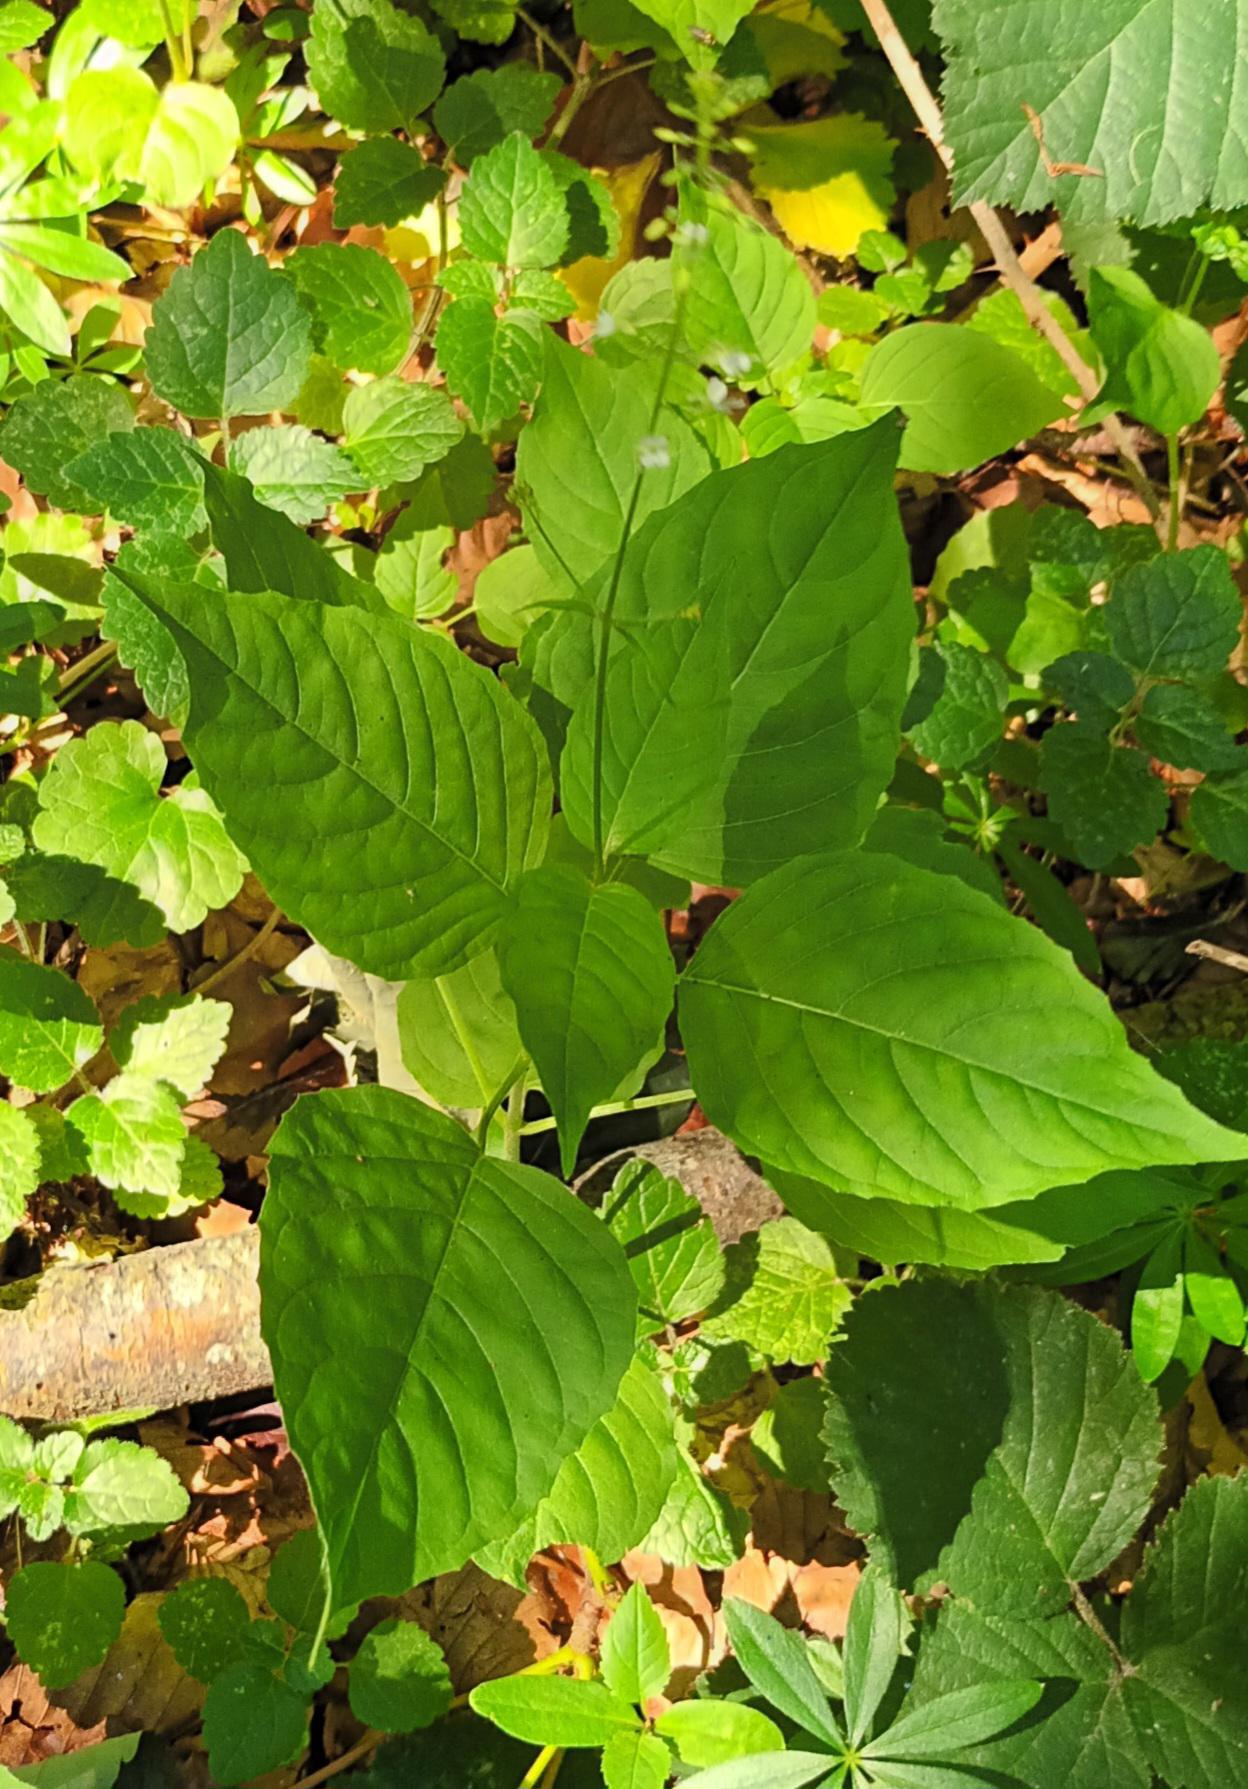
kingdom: Plantae
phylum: Tracheophyta
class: Magnoliopsida
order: Myrtales
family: Onagraceae
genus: Circaea
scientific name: Circaea lutetiana
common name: Dunet steffensurt
